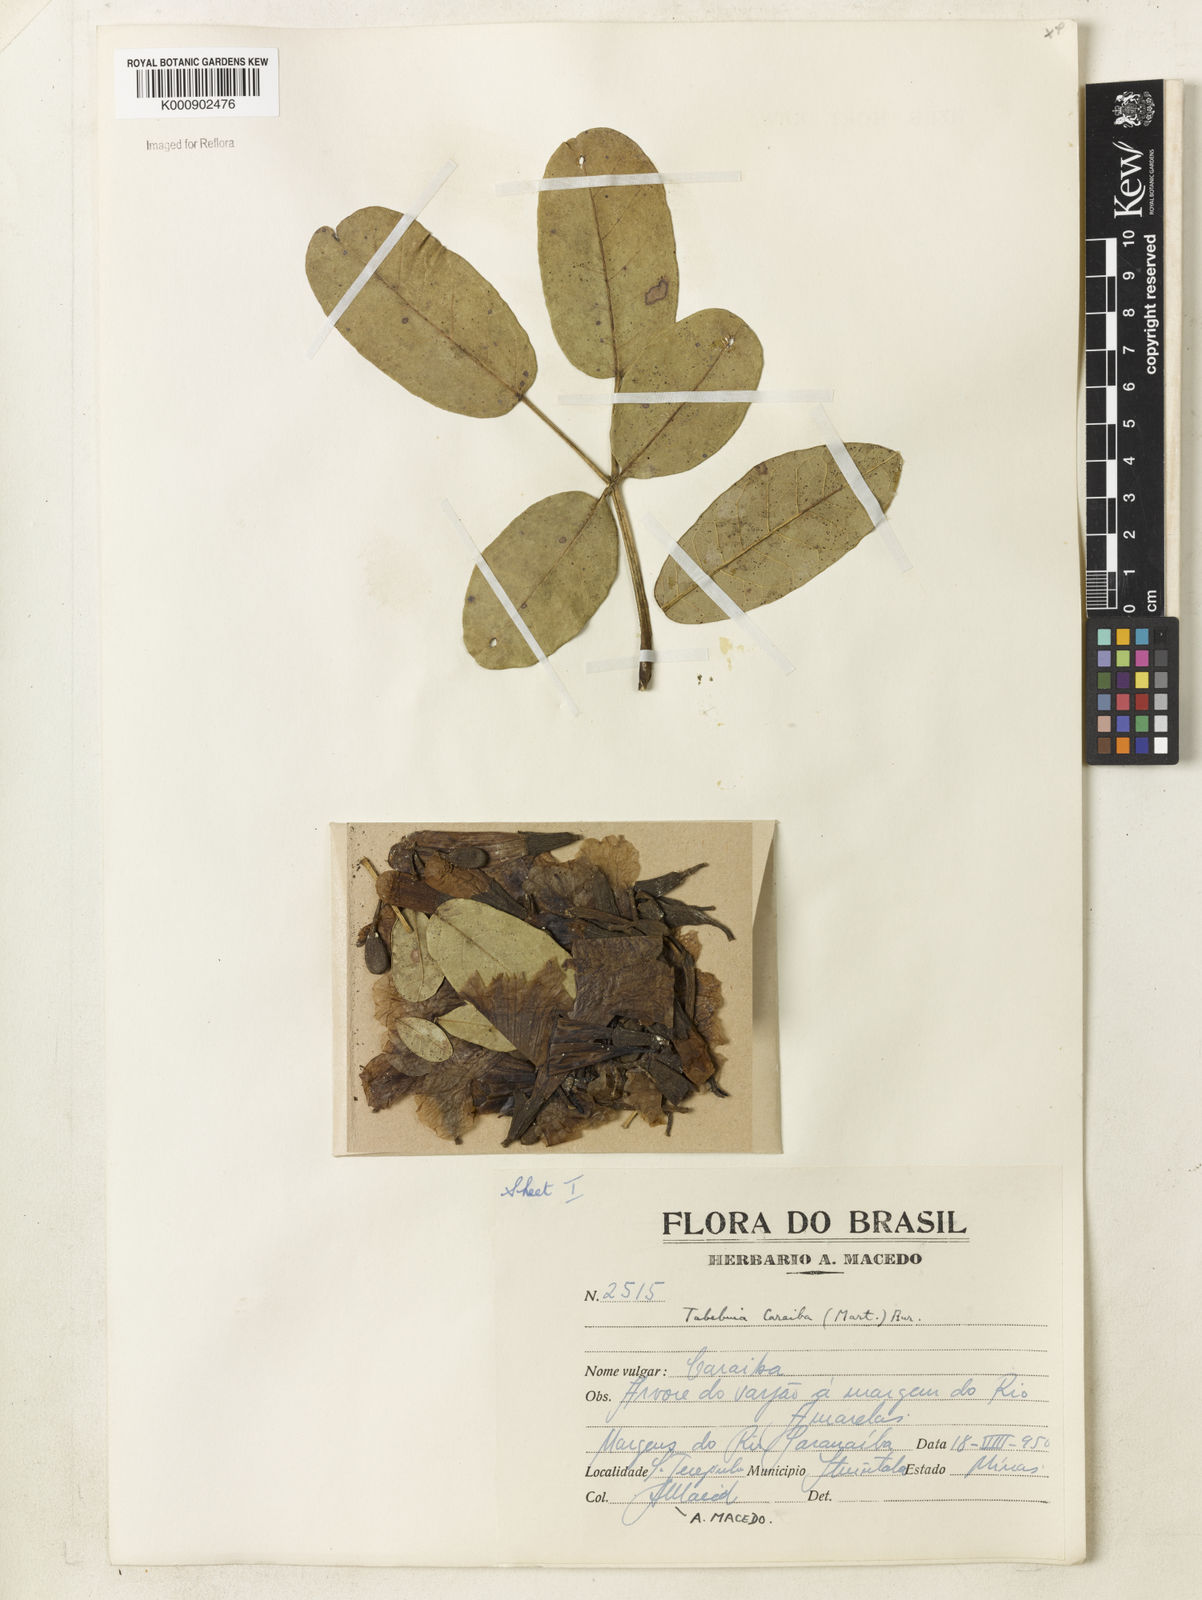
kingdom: Plantae
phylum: Tracheophyta
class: Magnoliopsida
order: Lamiales
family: Bignoniaceae
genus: Tabebuia
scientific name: Tabebuia aurea
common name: Caribbean trumpet-tree
